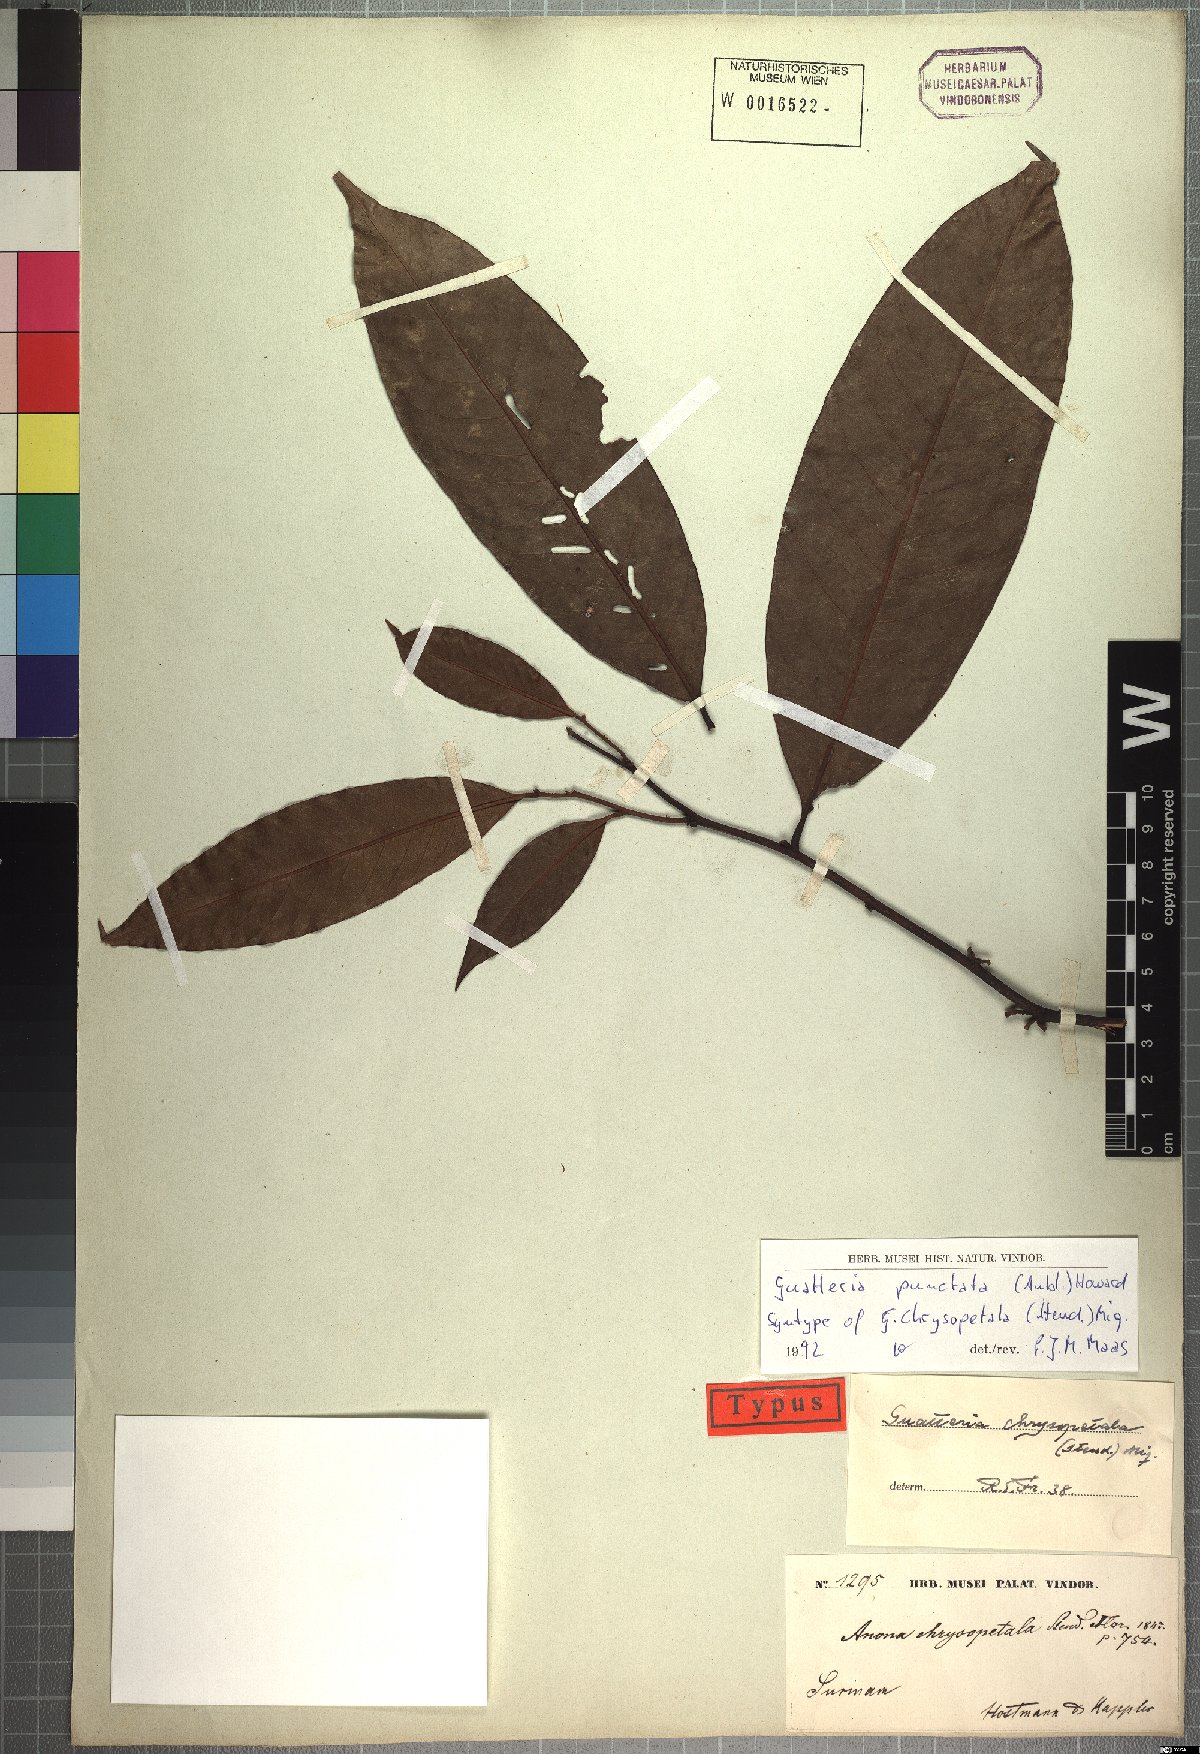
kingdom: Plantae
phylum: Tracheophyta
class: Magnoliopsida
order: Magnoliales
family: Annonaceae
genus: Guatteria
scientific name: Guatteria punctata
